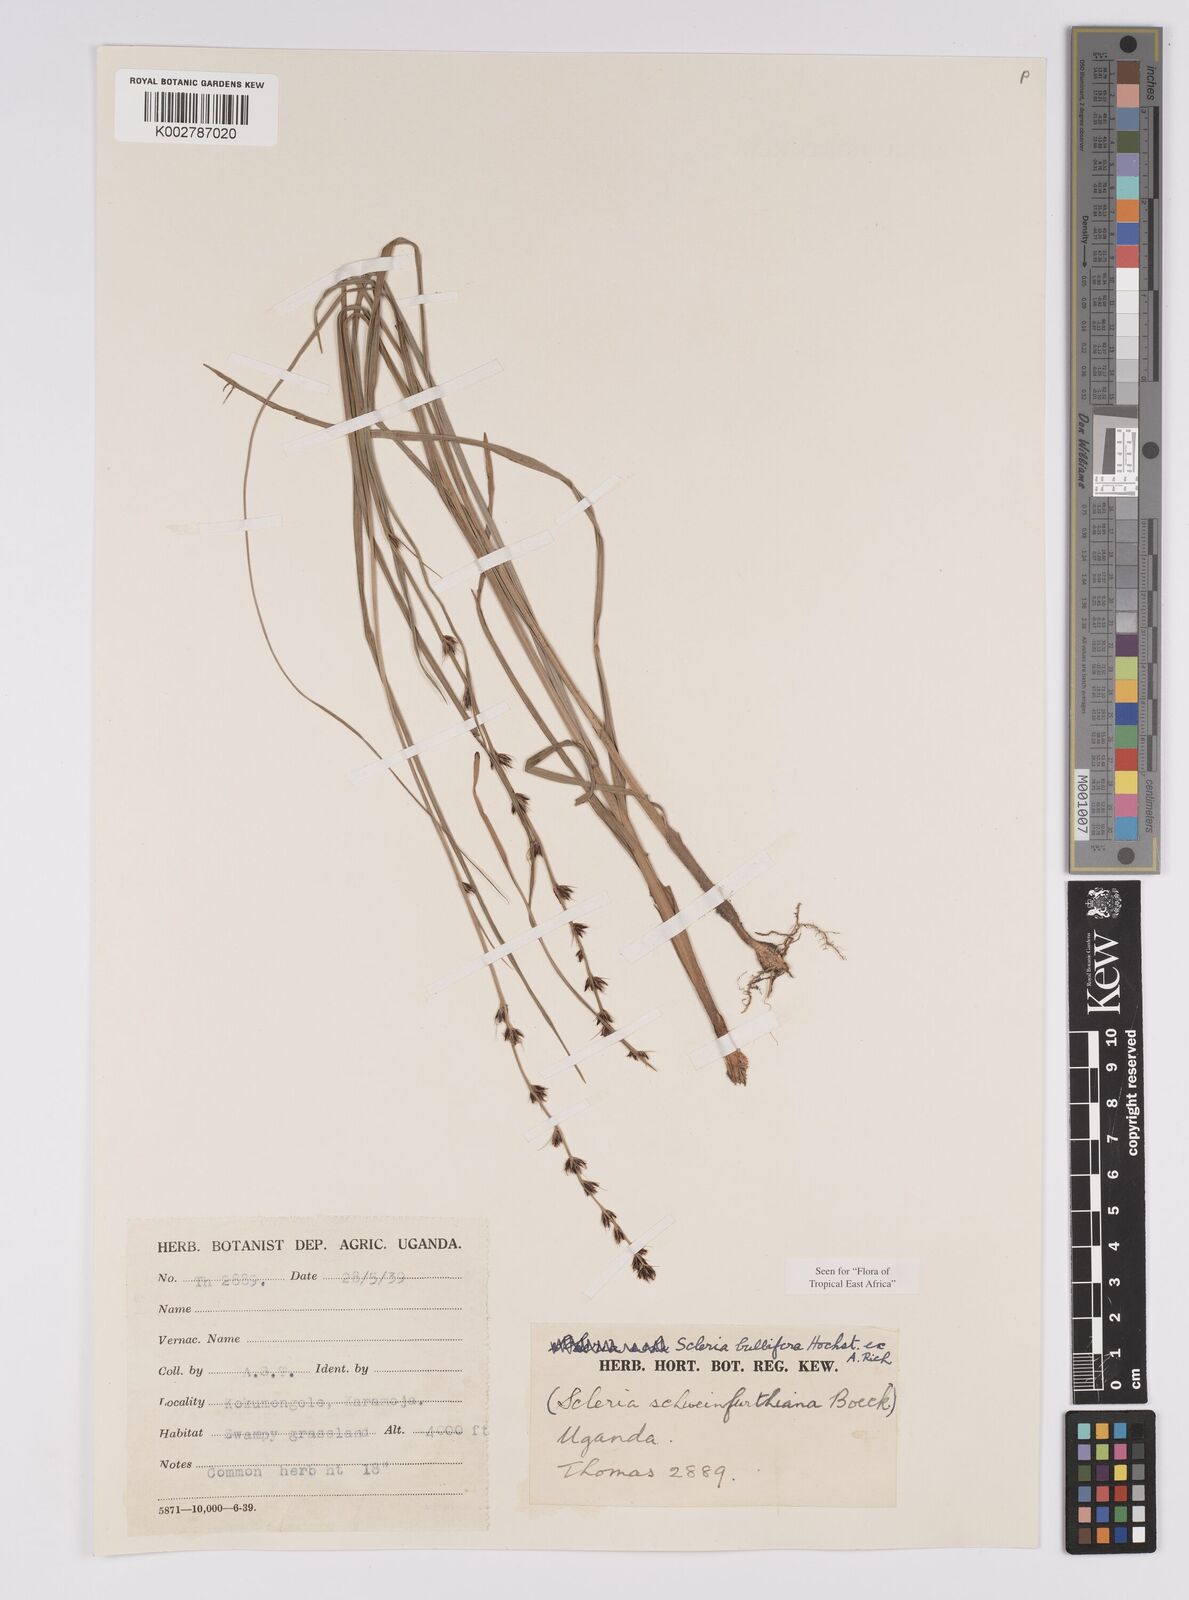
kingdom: Plantae
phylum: Tracheophyta
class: Liliopsida
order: Poales
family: Cyperaceae
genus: Scleria
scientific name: Scleria bulbifera
